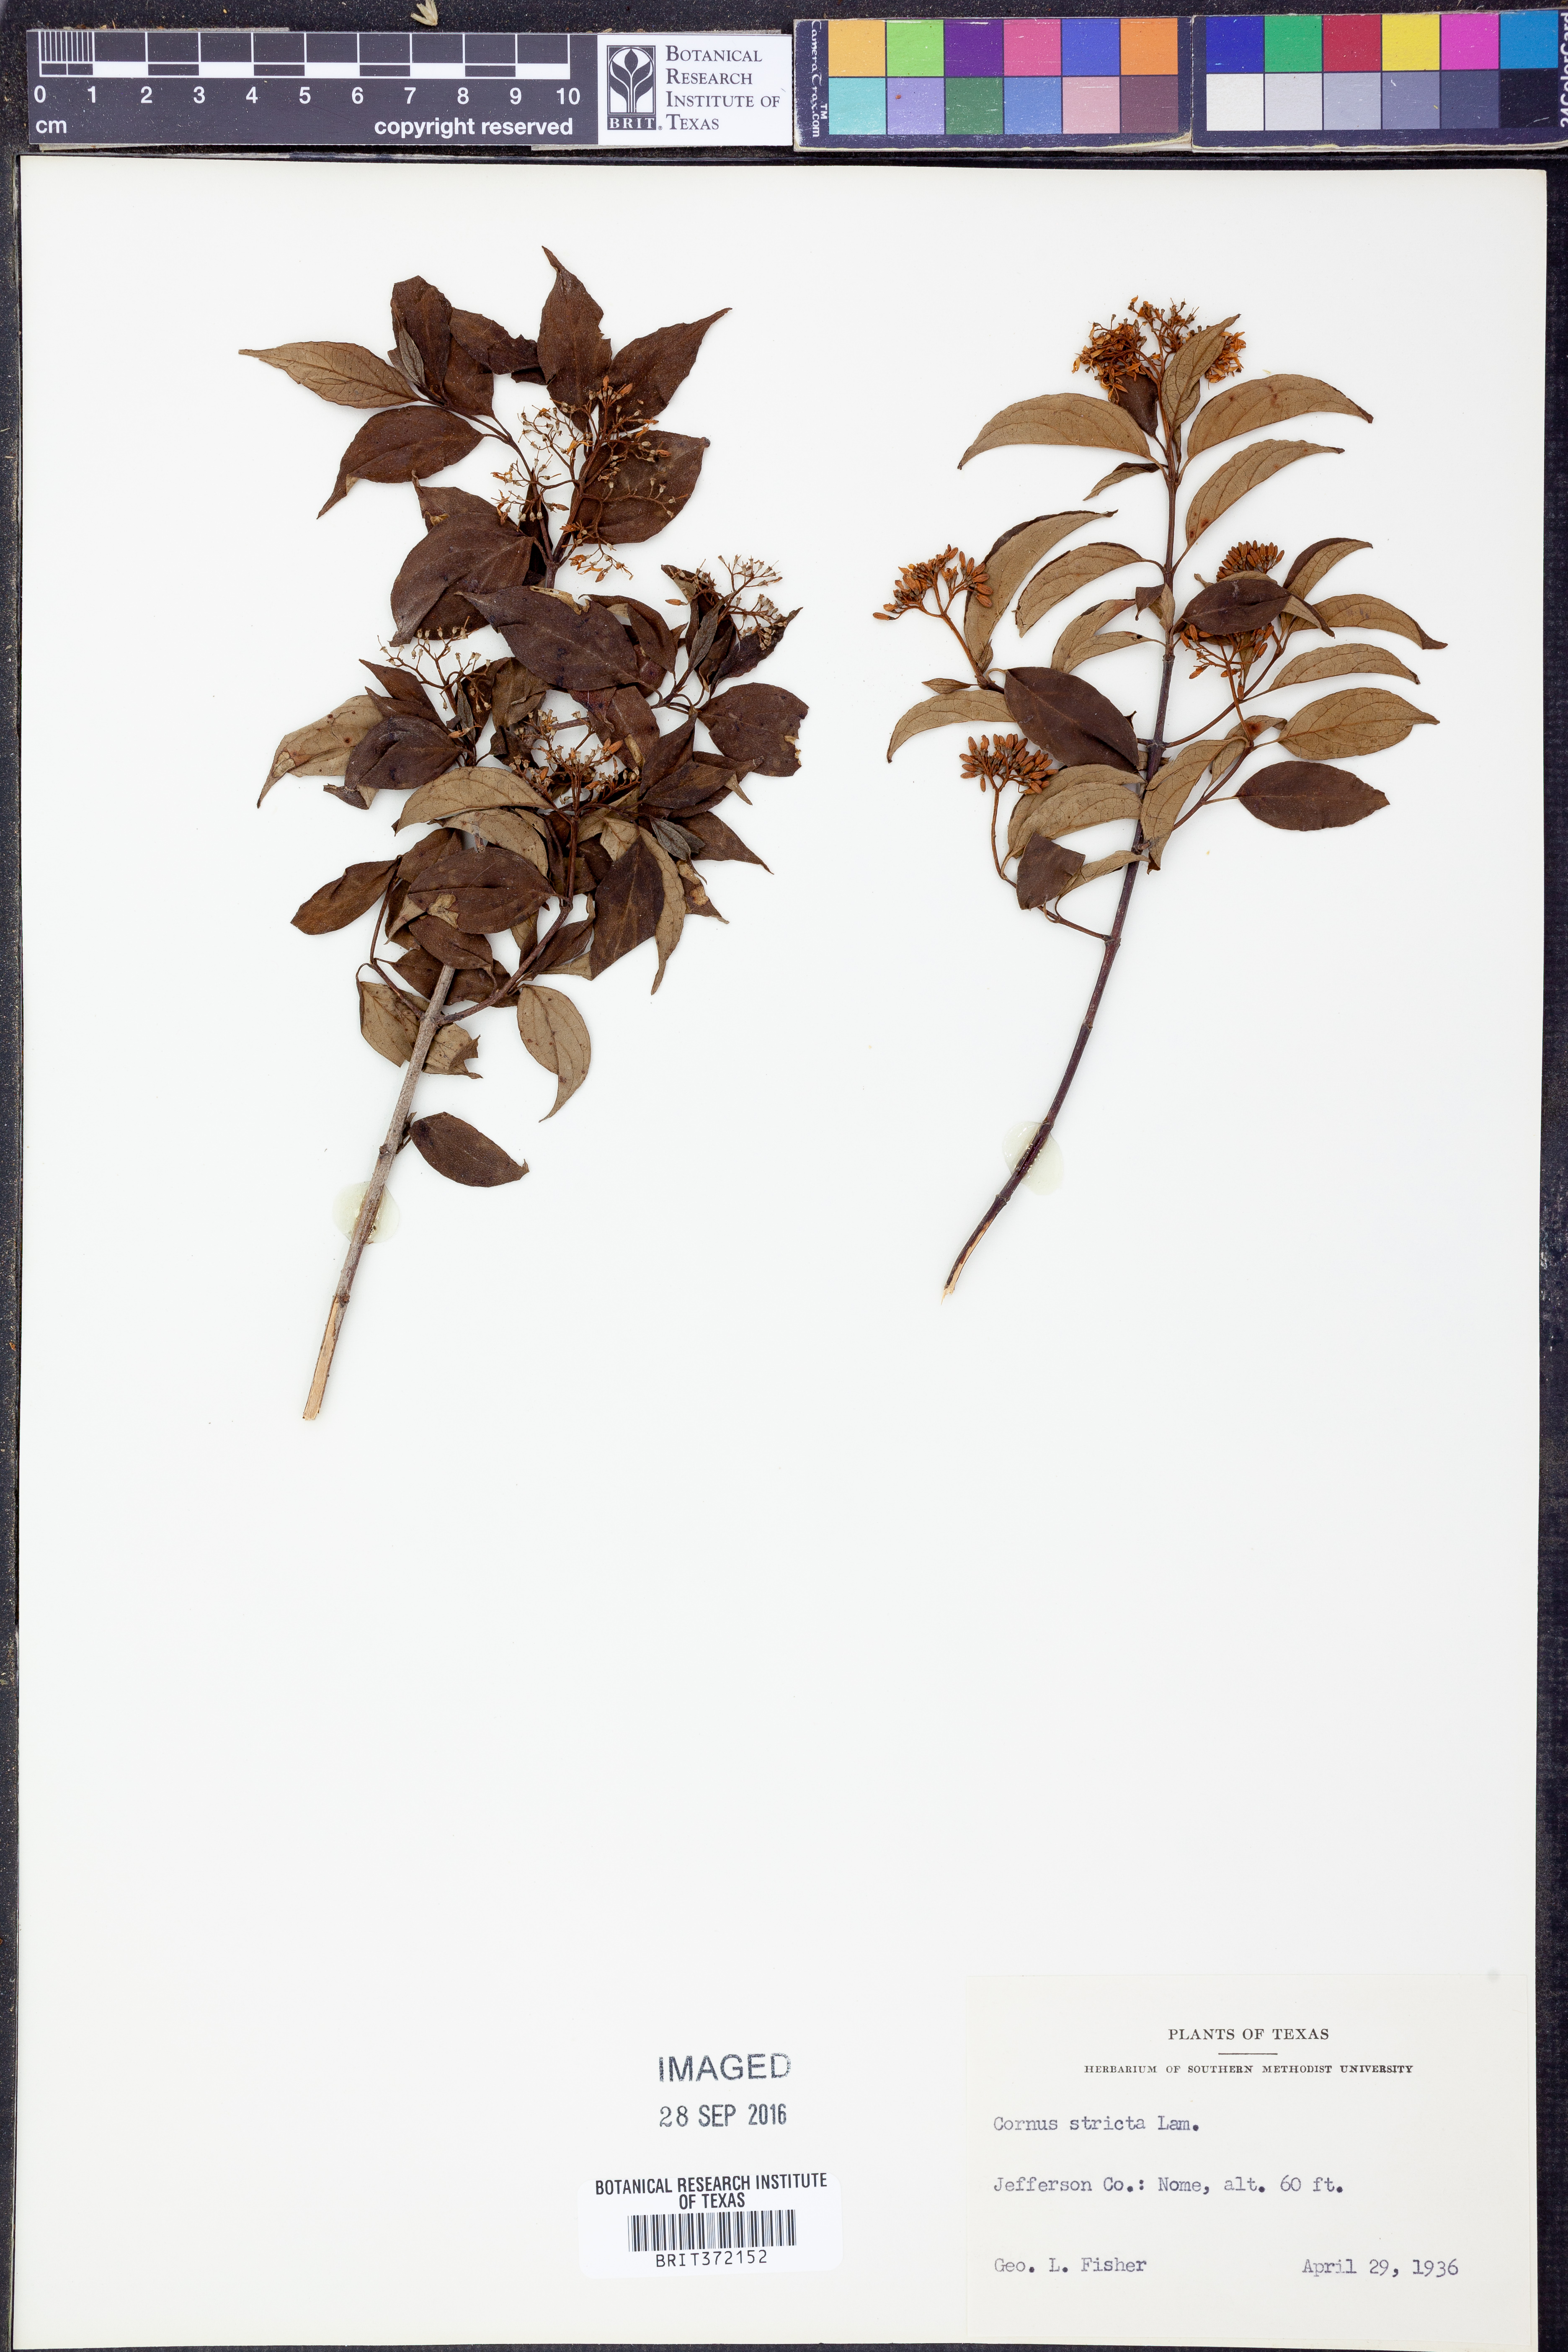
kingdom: Plantae
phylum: Tracheophyta
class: Magnoliopsida
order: Cornales
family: Cornaceae
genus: Cornus
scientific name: Cornus foemina
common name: Swamp dogwood
